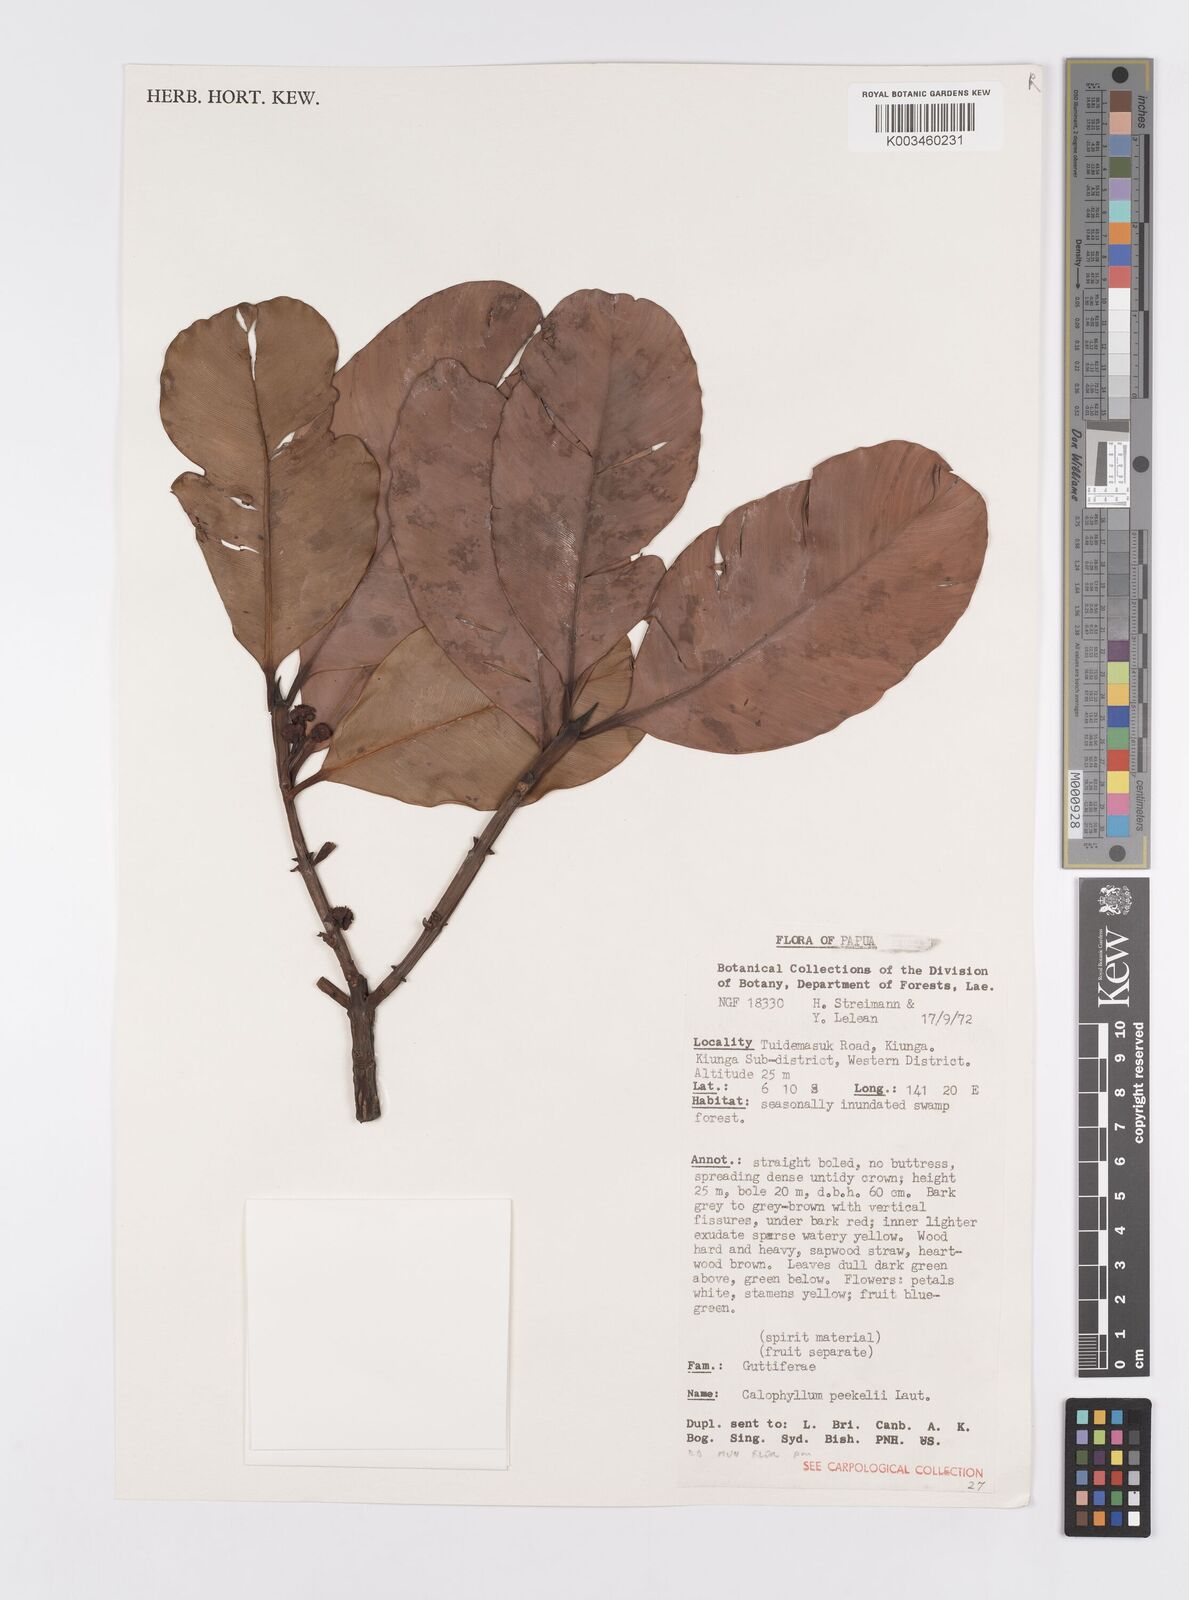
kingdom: Plantae
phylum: Tracheophyta
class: Magnoliopsida
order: Malpighiales
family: Calophyllaceae
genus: Calophyllum
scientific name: Calophyllum peekelii
